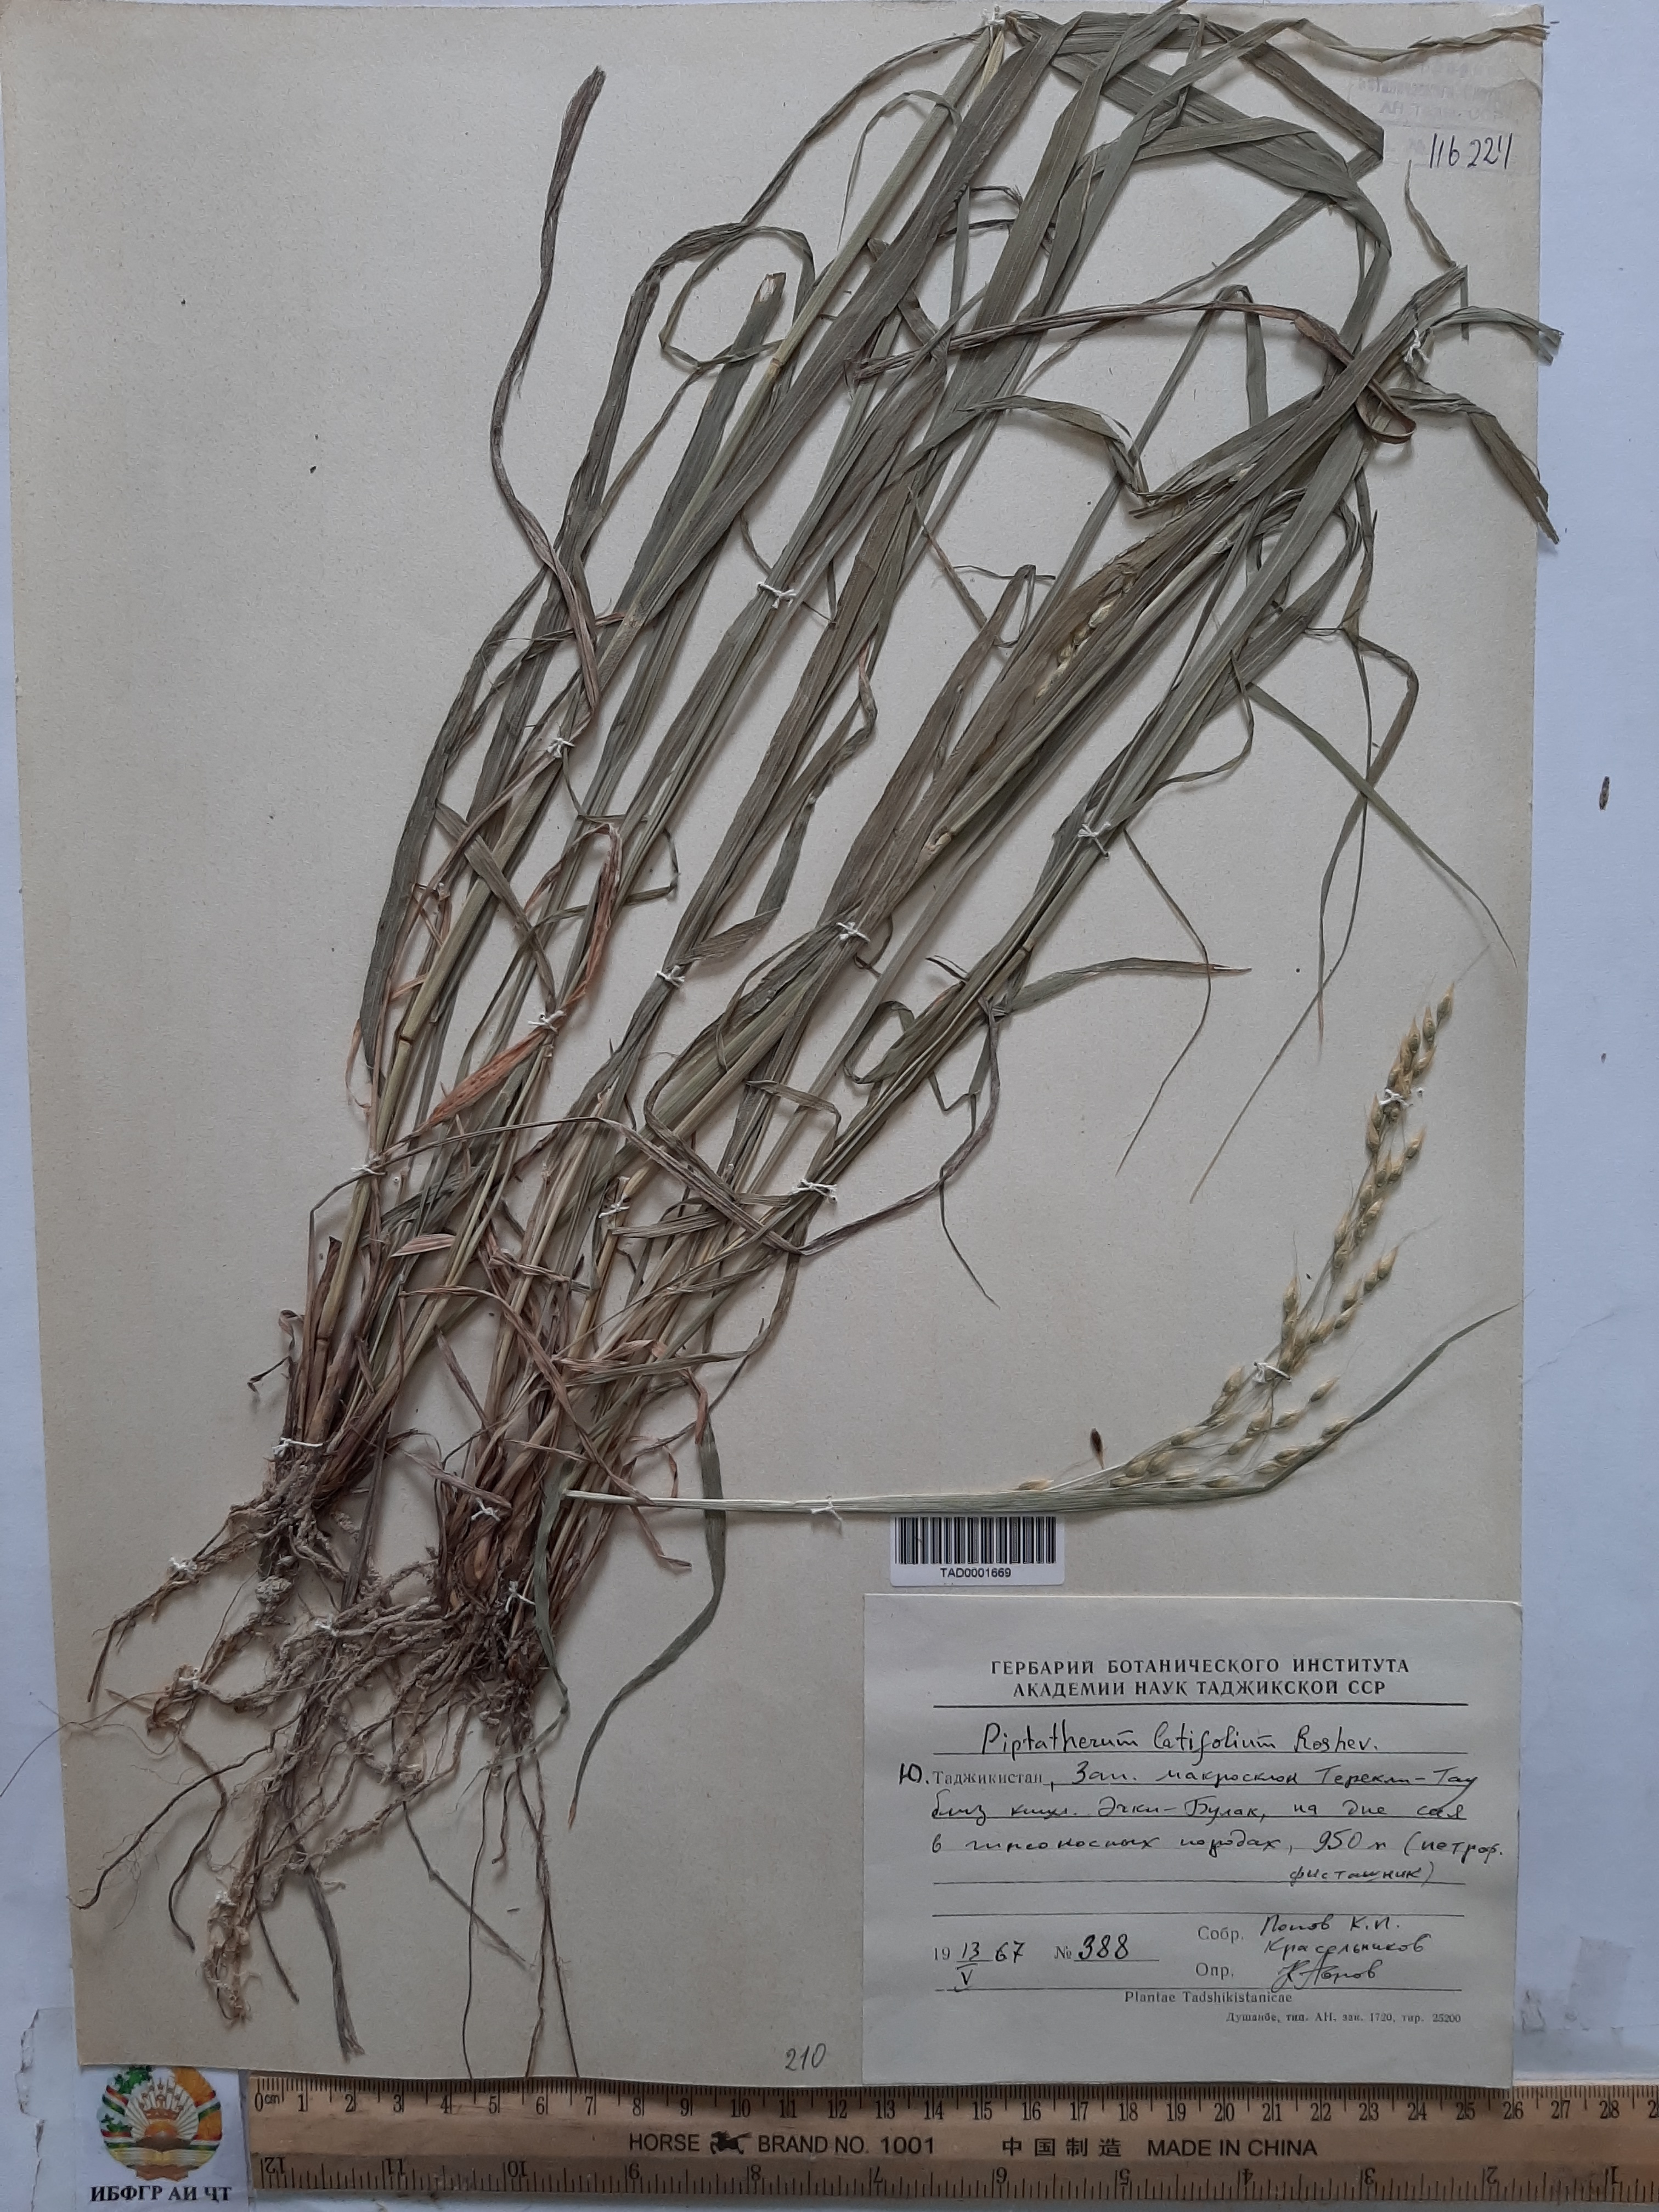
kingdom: Plantae
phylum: Tracheophyta
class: Liliopsida
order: Poales
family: Poaceae
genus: Piptatherum
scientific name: Piptatherum latifolium
